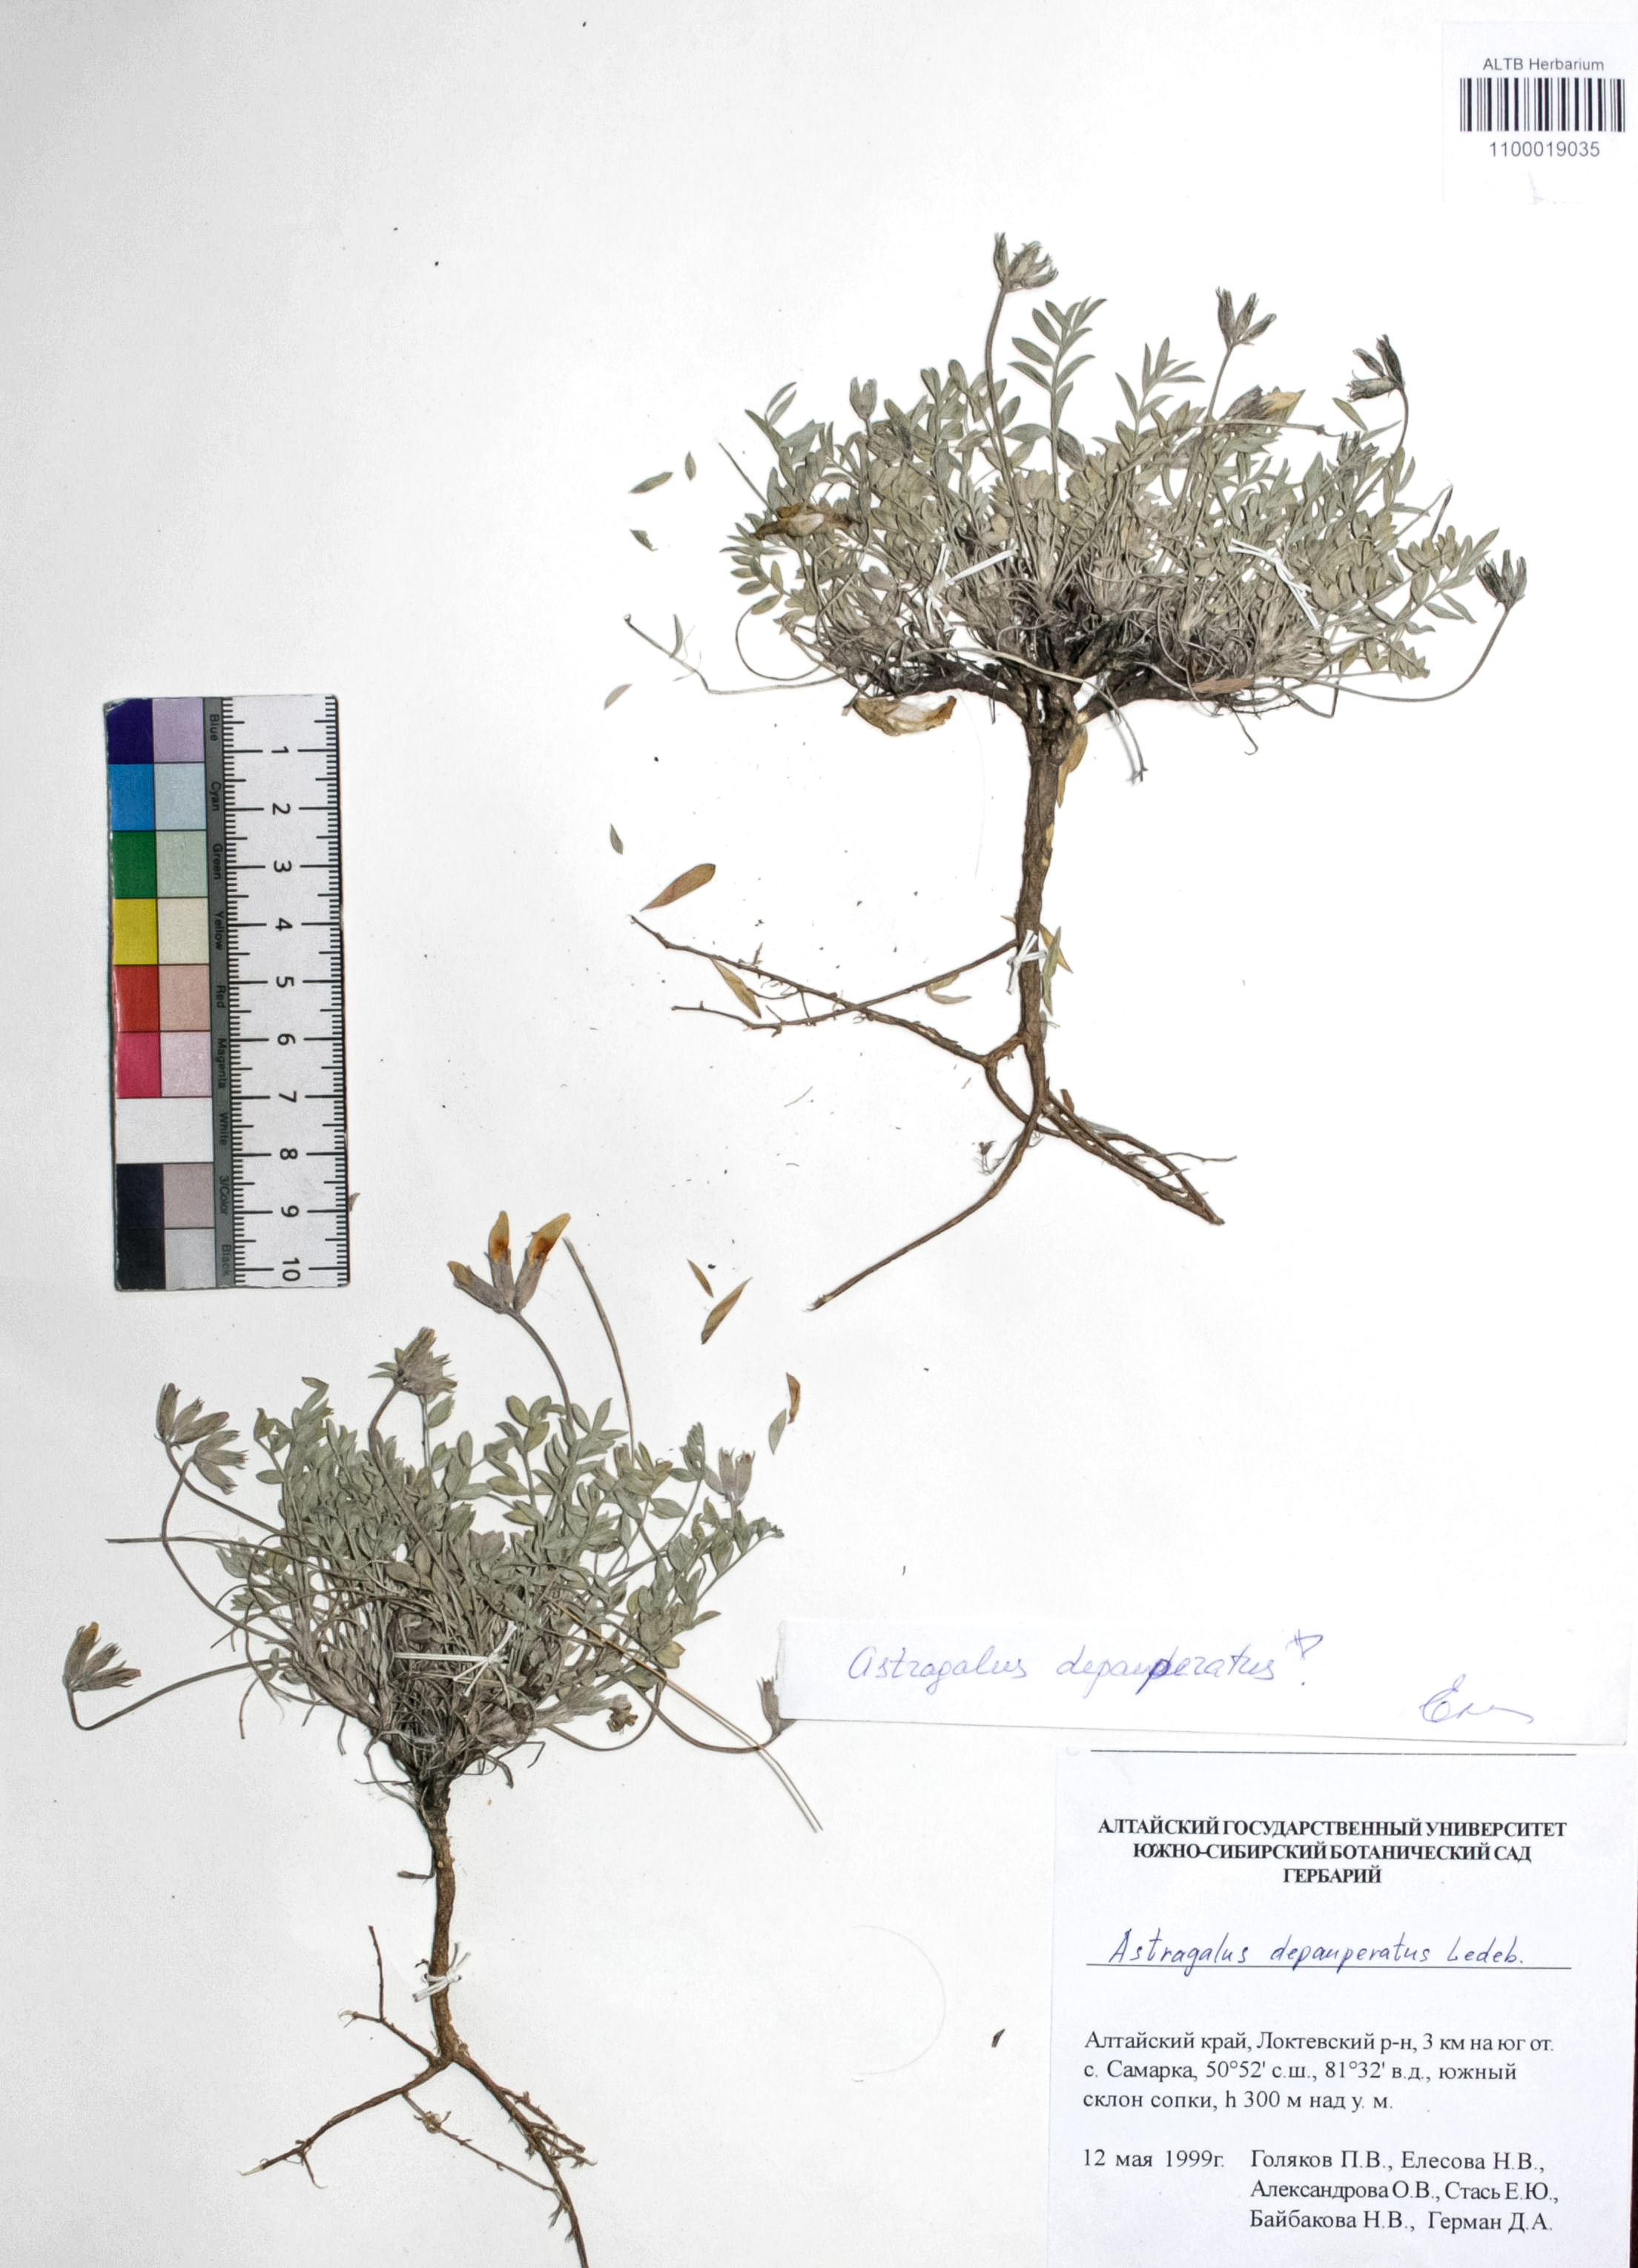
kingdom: Plantae
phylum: Tracheophyta
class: Magnoliopsida
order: Fabales
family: Fabaceae
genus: Astragalus
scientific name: Astragalus depauperatus
